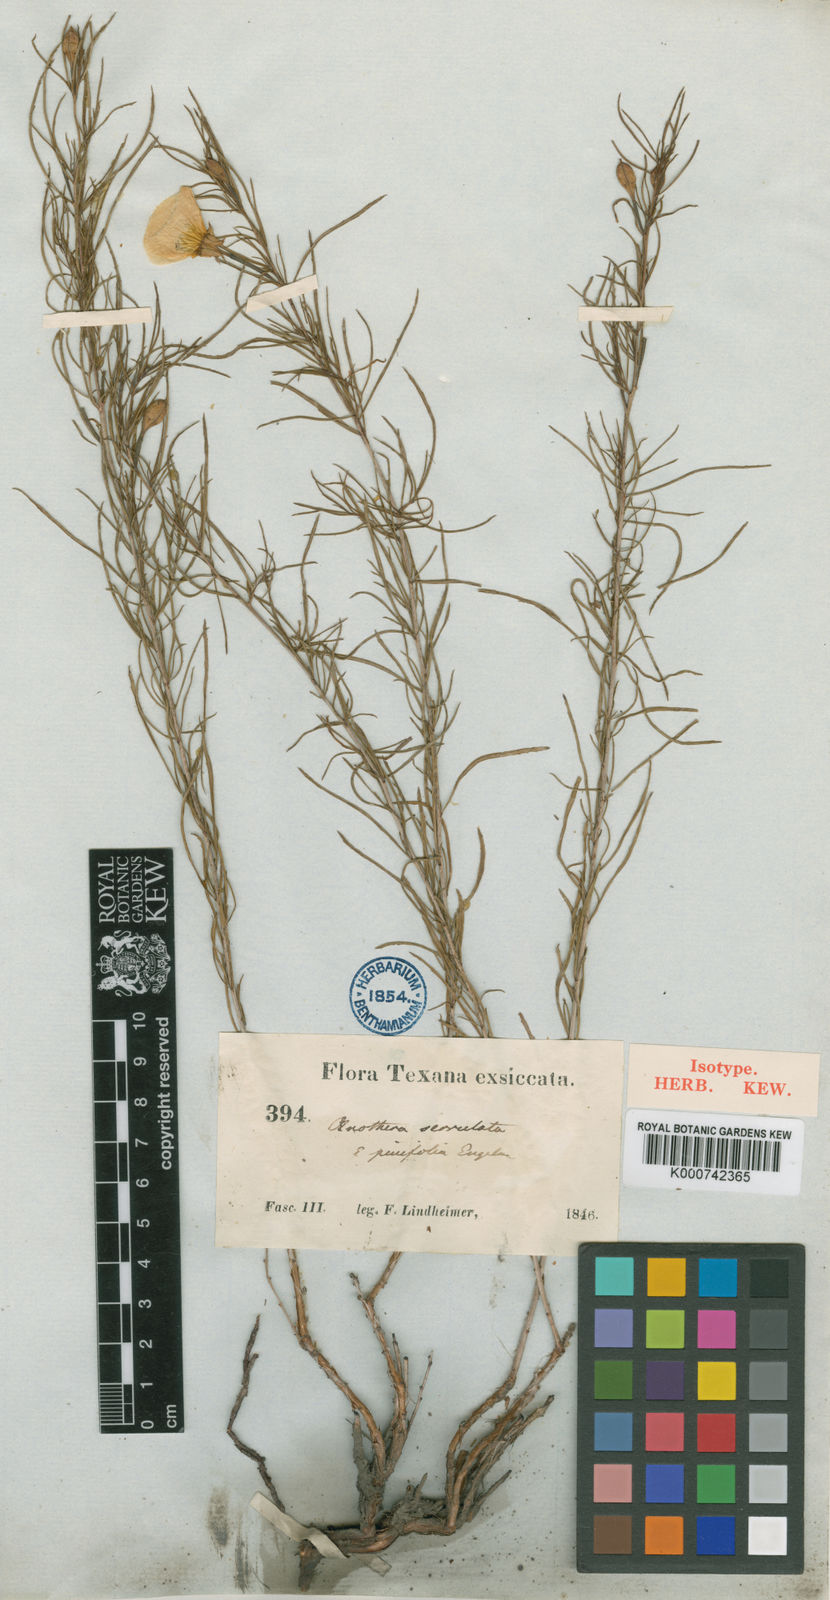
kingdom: Plantae
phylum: Tracheophyta
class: Magnoliopsida
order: Myrtales
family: Onagraceae
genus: Oenothera
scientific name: Oenothera capillifolia
